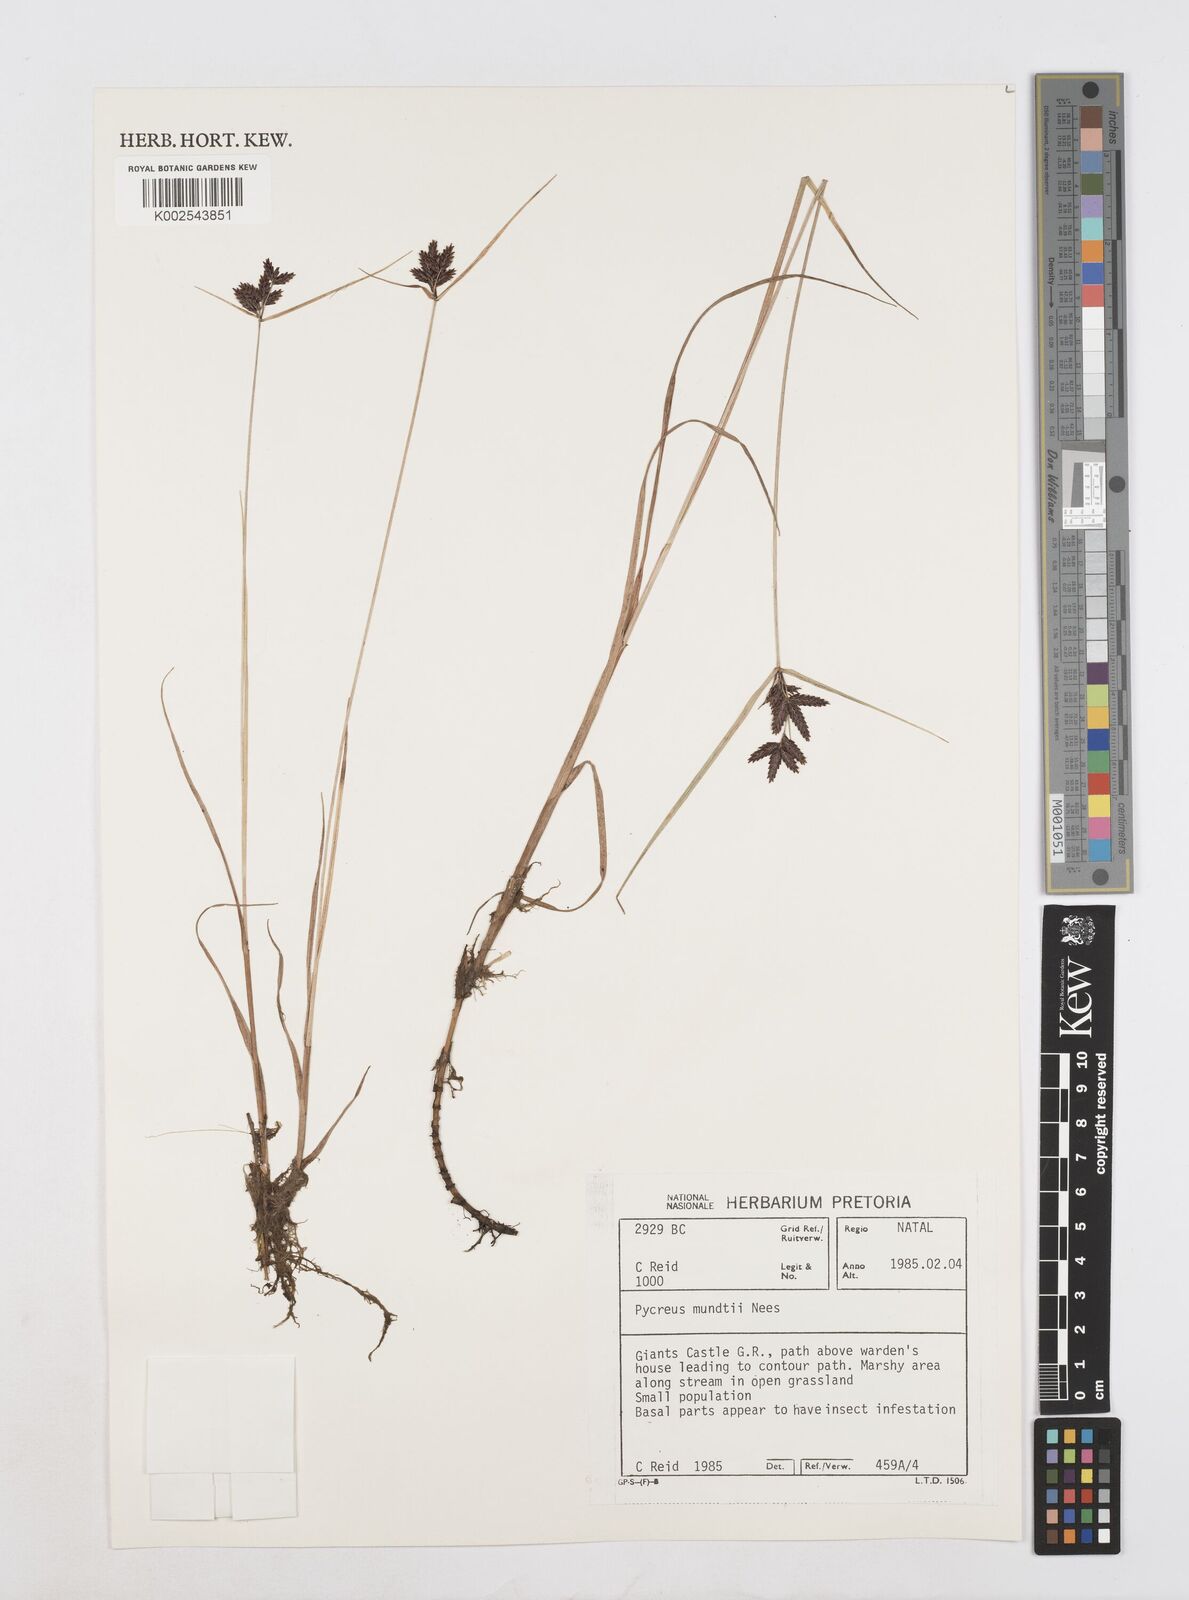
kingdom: Plantae
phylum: Tracheophyta
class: Liliopsida
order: Poales
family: Cyperaceae
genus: Cyperus
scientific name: Cyperus mundii
